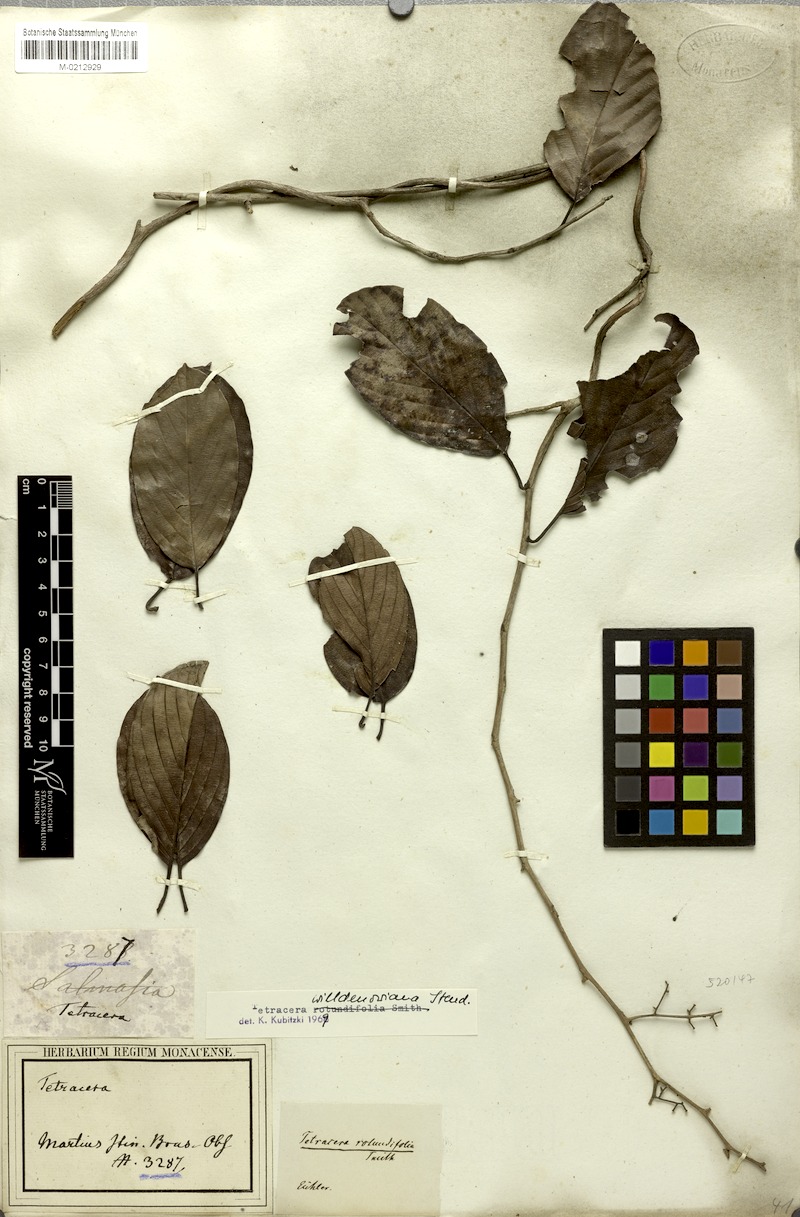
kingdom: Plantae
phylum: Tracheophyta
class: Magnoliopsida
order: Dilleniales
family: Dilleniaceae
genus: Tetracera
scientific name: Tetracera willdenowiana
